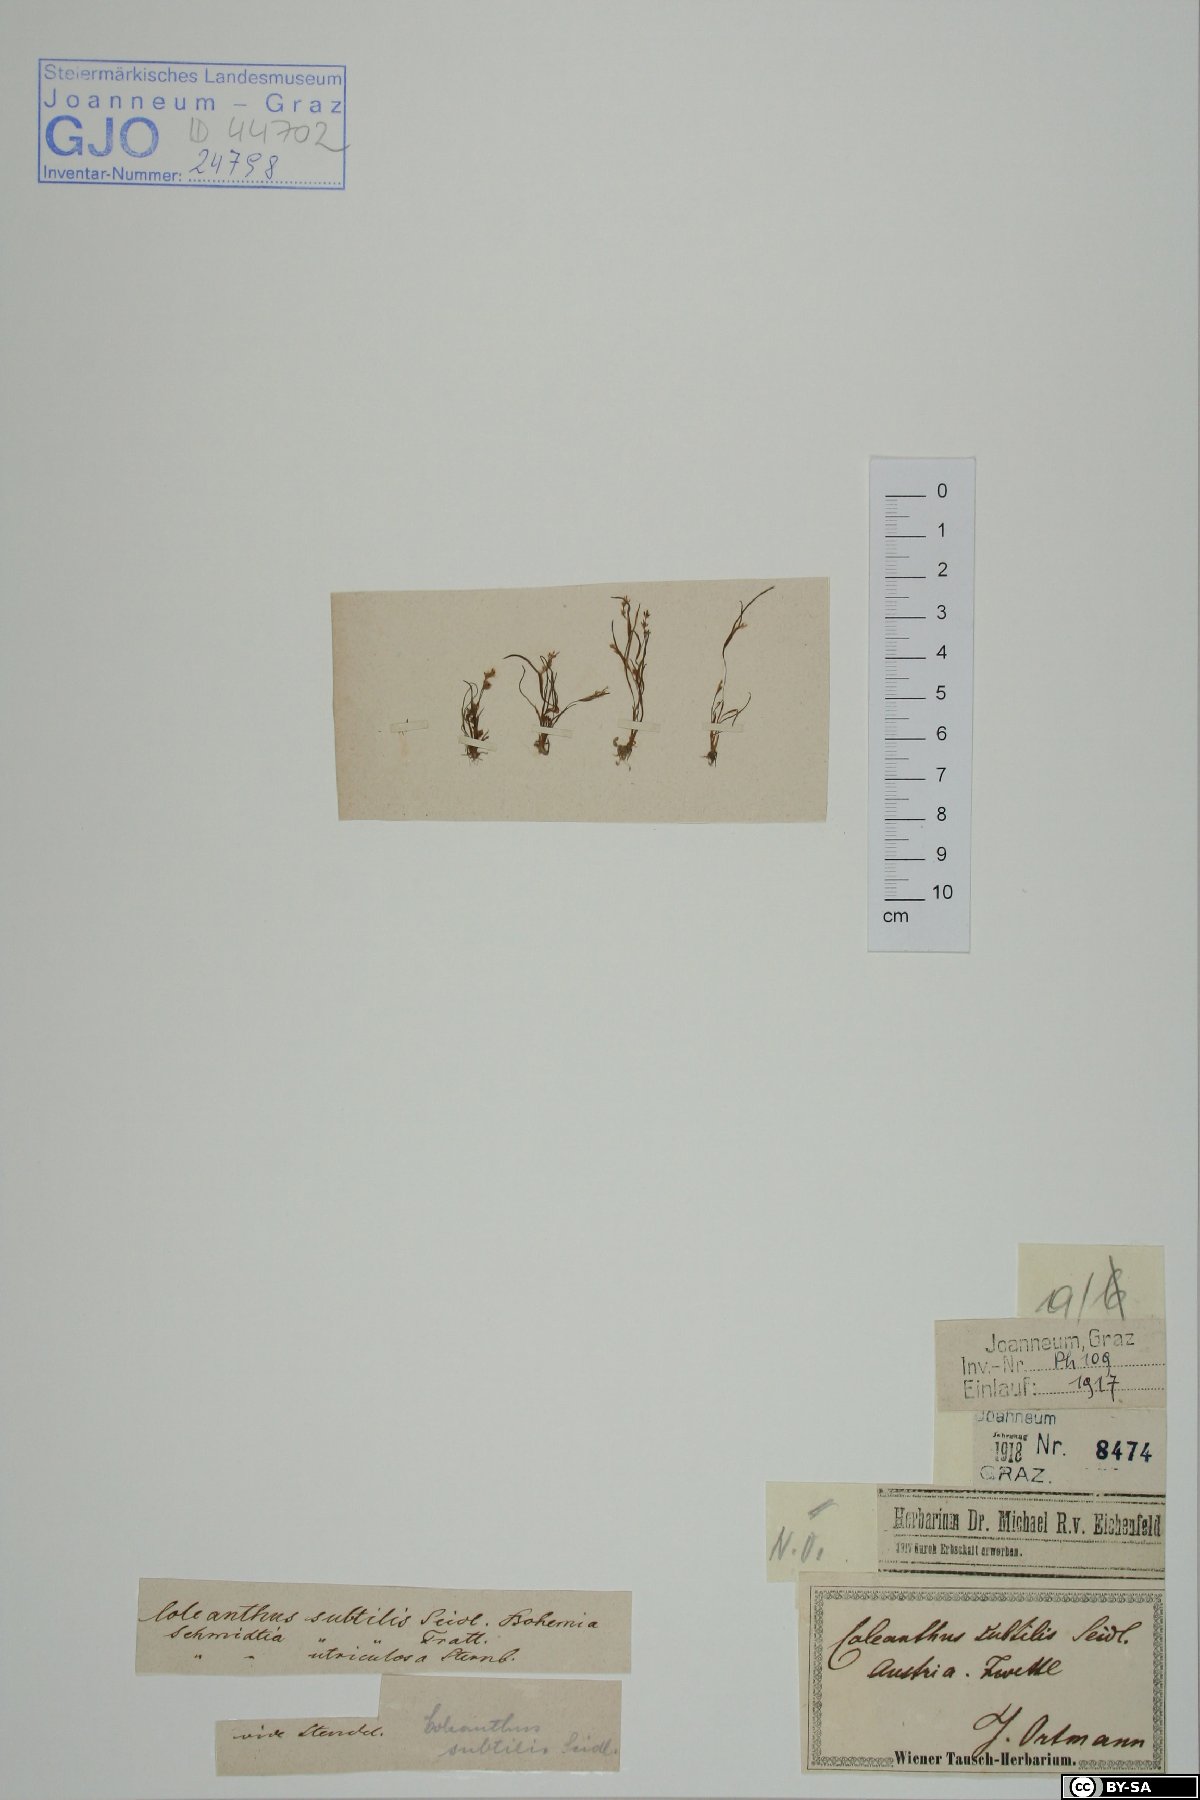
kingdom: Plantae
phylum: Tracheophyta
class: Liliopsida
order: Poales
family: Poaceae
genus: Coleanthus
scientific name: Coleanthus subtilis
